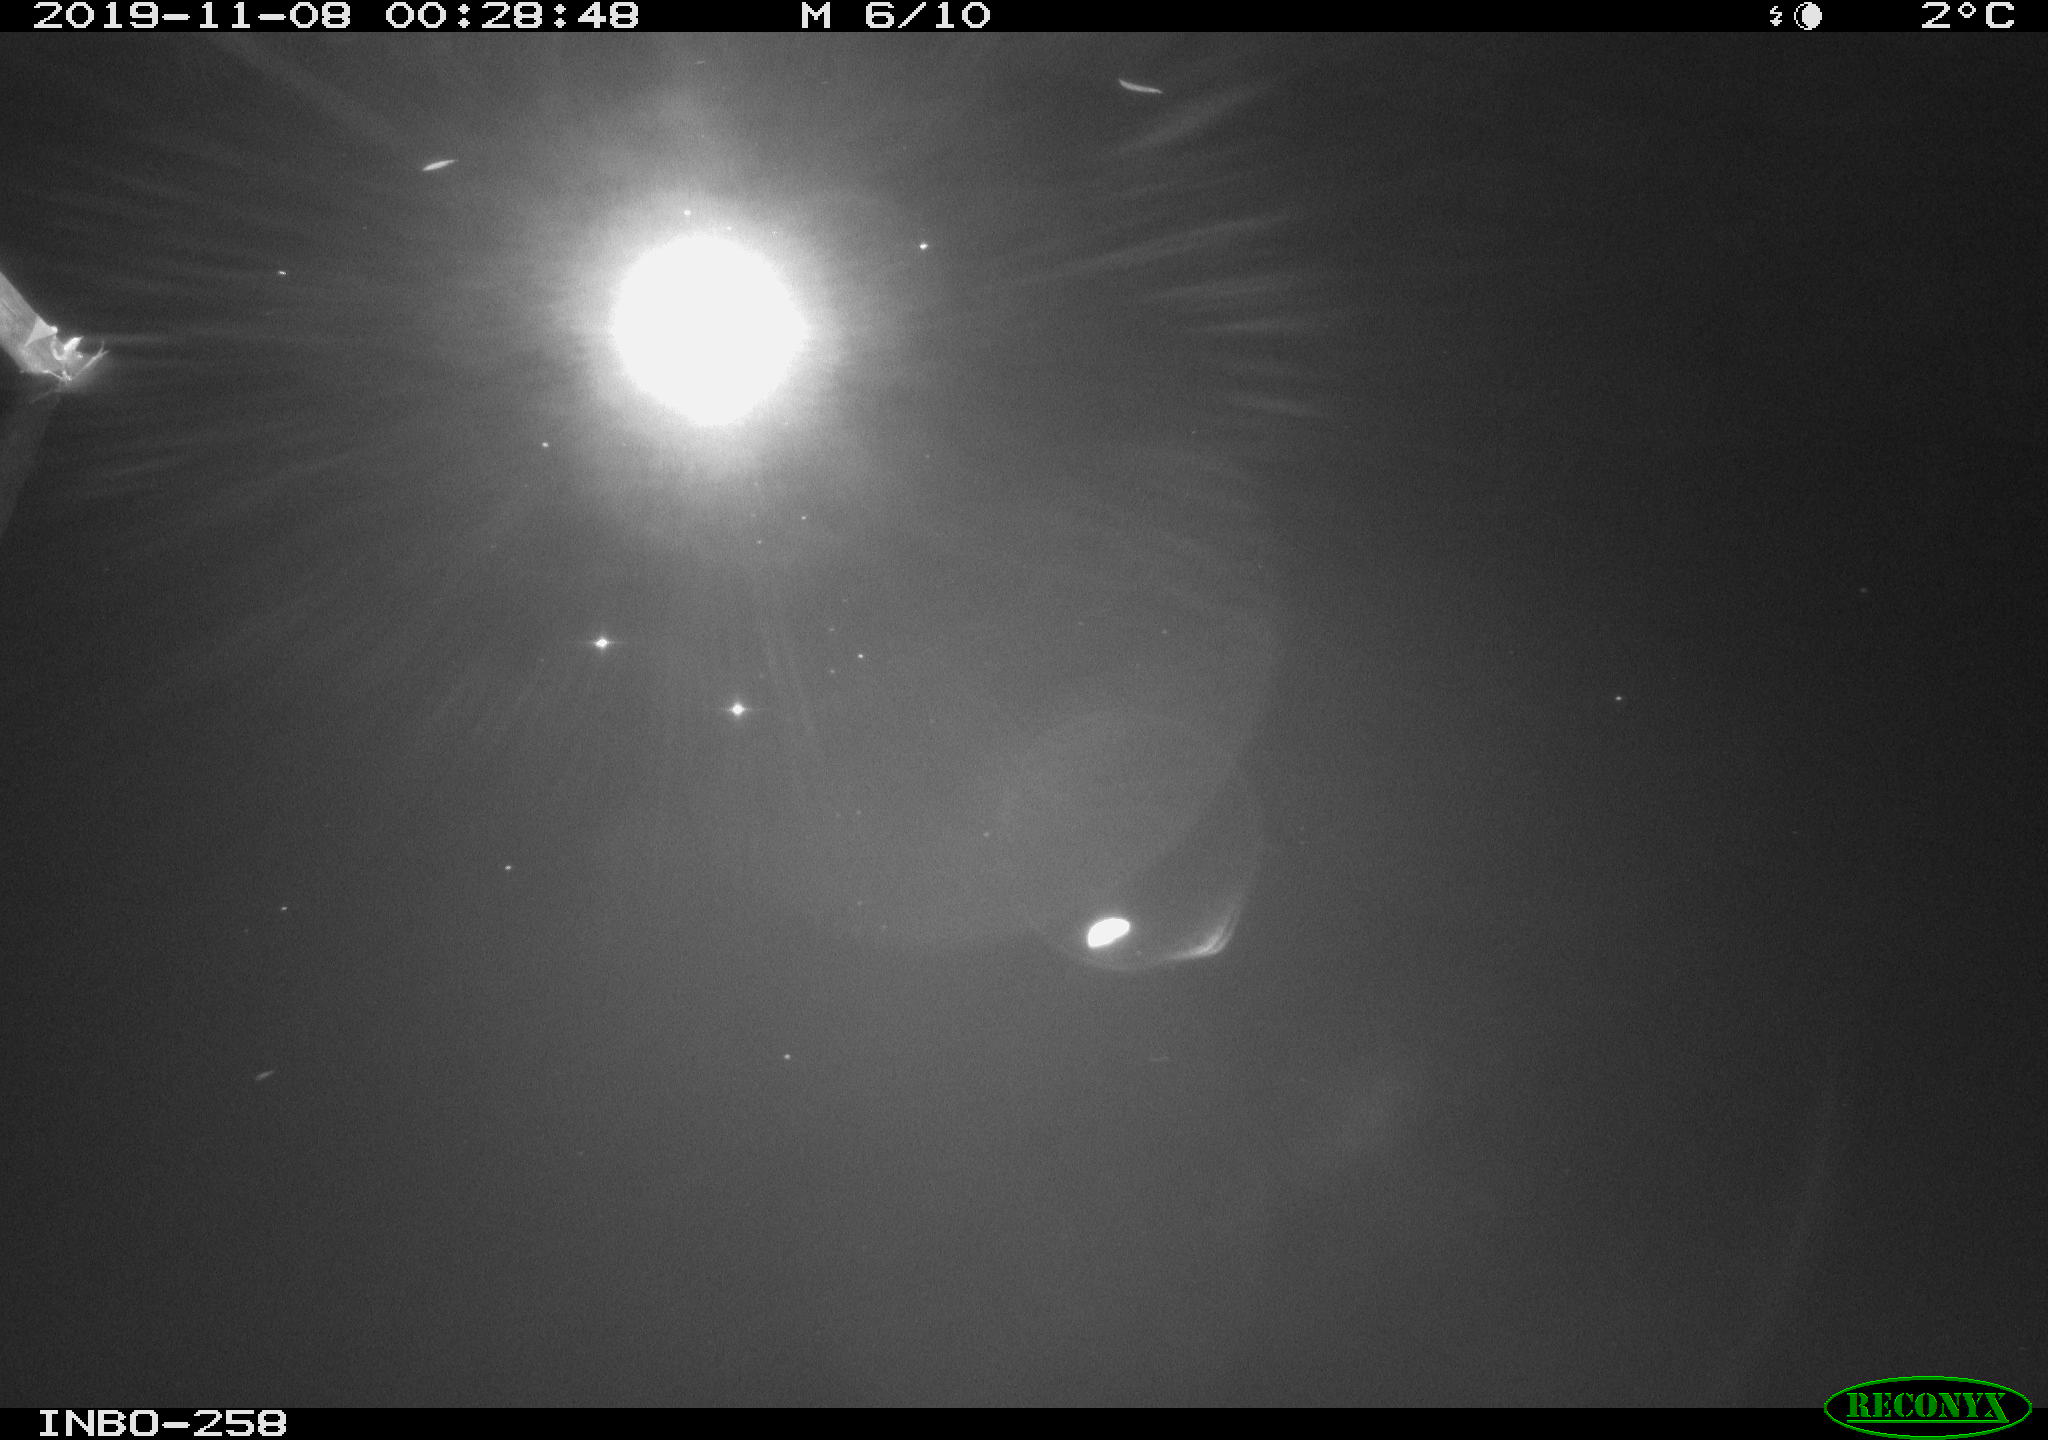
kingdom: Animalia
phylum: Chordata
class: Aves
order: Anseriformes
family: Anatidae
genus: Anas
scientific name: Anas platyrhynchos
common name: Mallard
